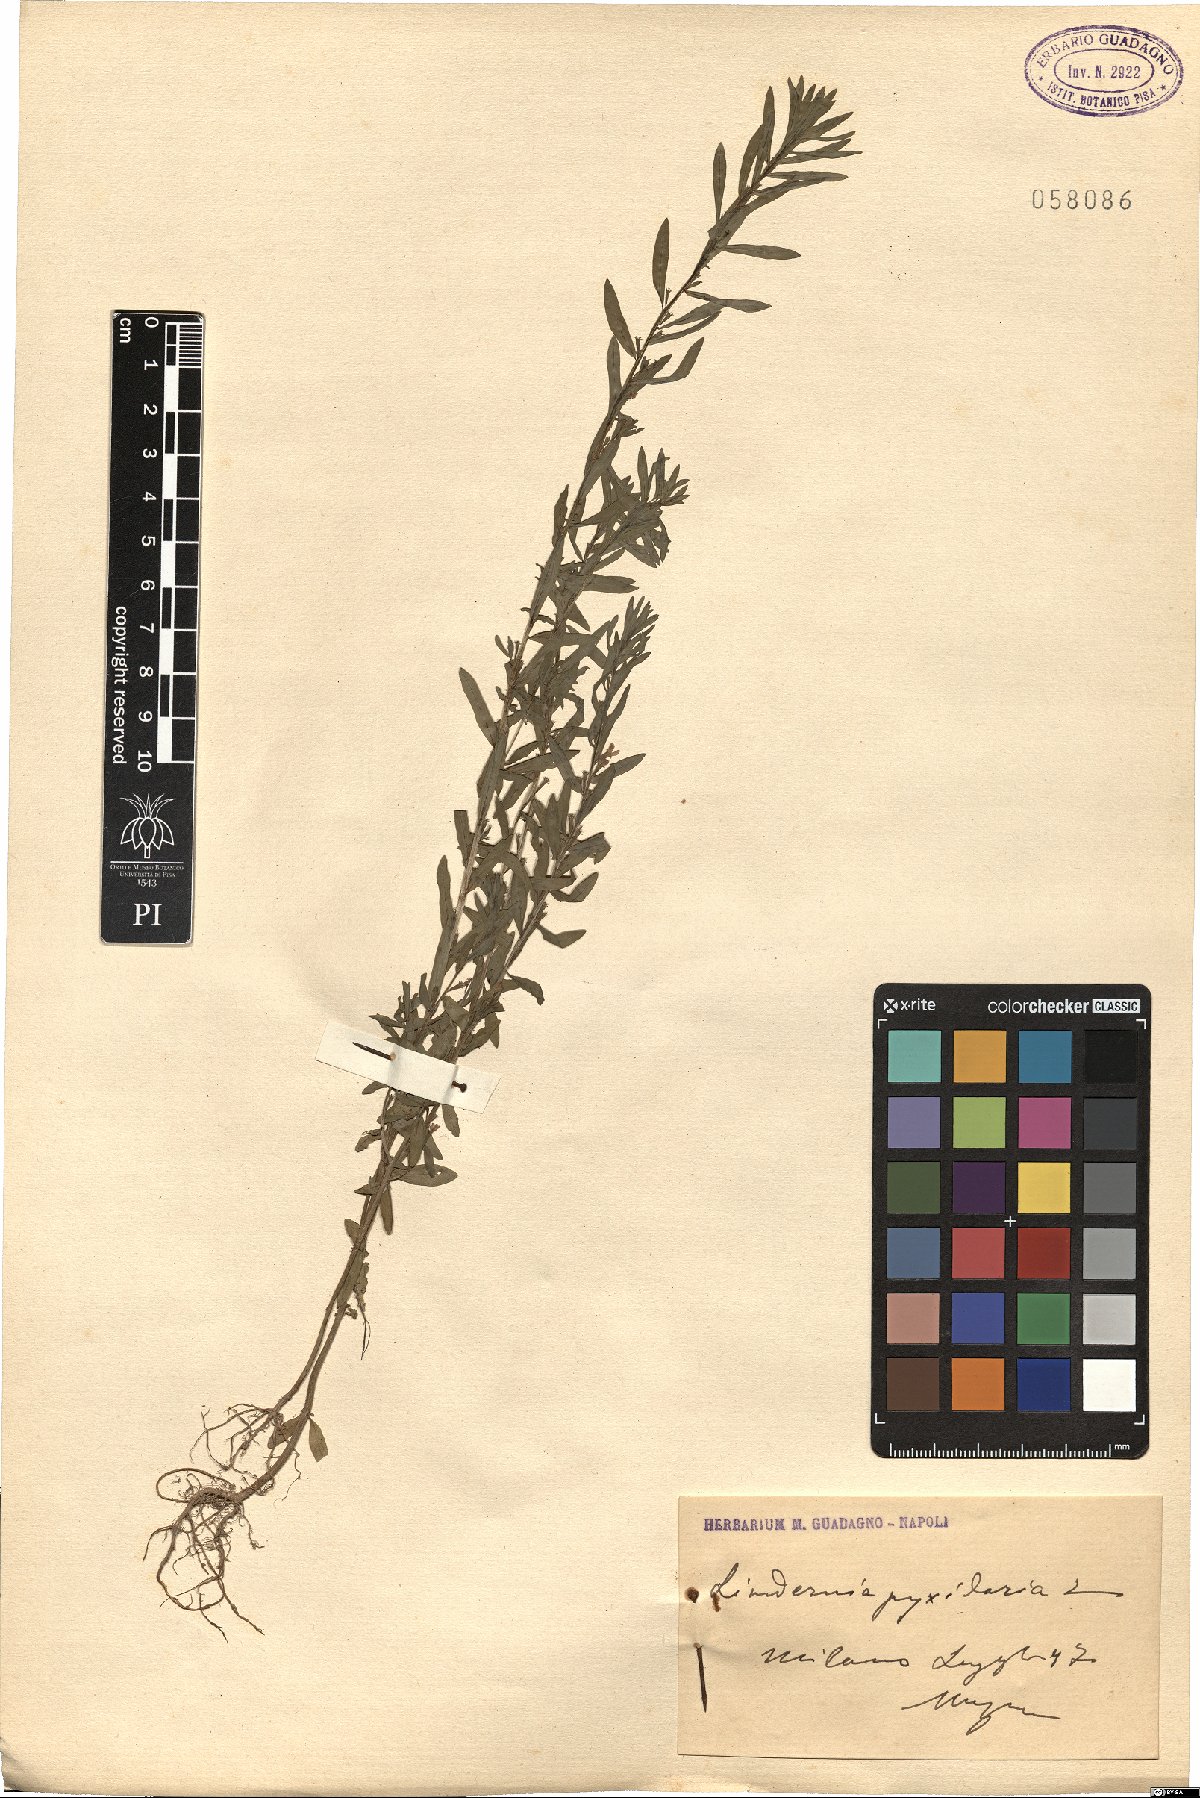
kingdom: Plantae
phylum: Tracheophyta
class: Magnoliopsida
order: Lamiales
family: Linderniaceae
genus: Lindernia
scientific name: Lindernia dubia
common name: Annual false pimpernel
